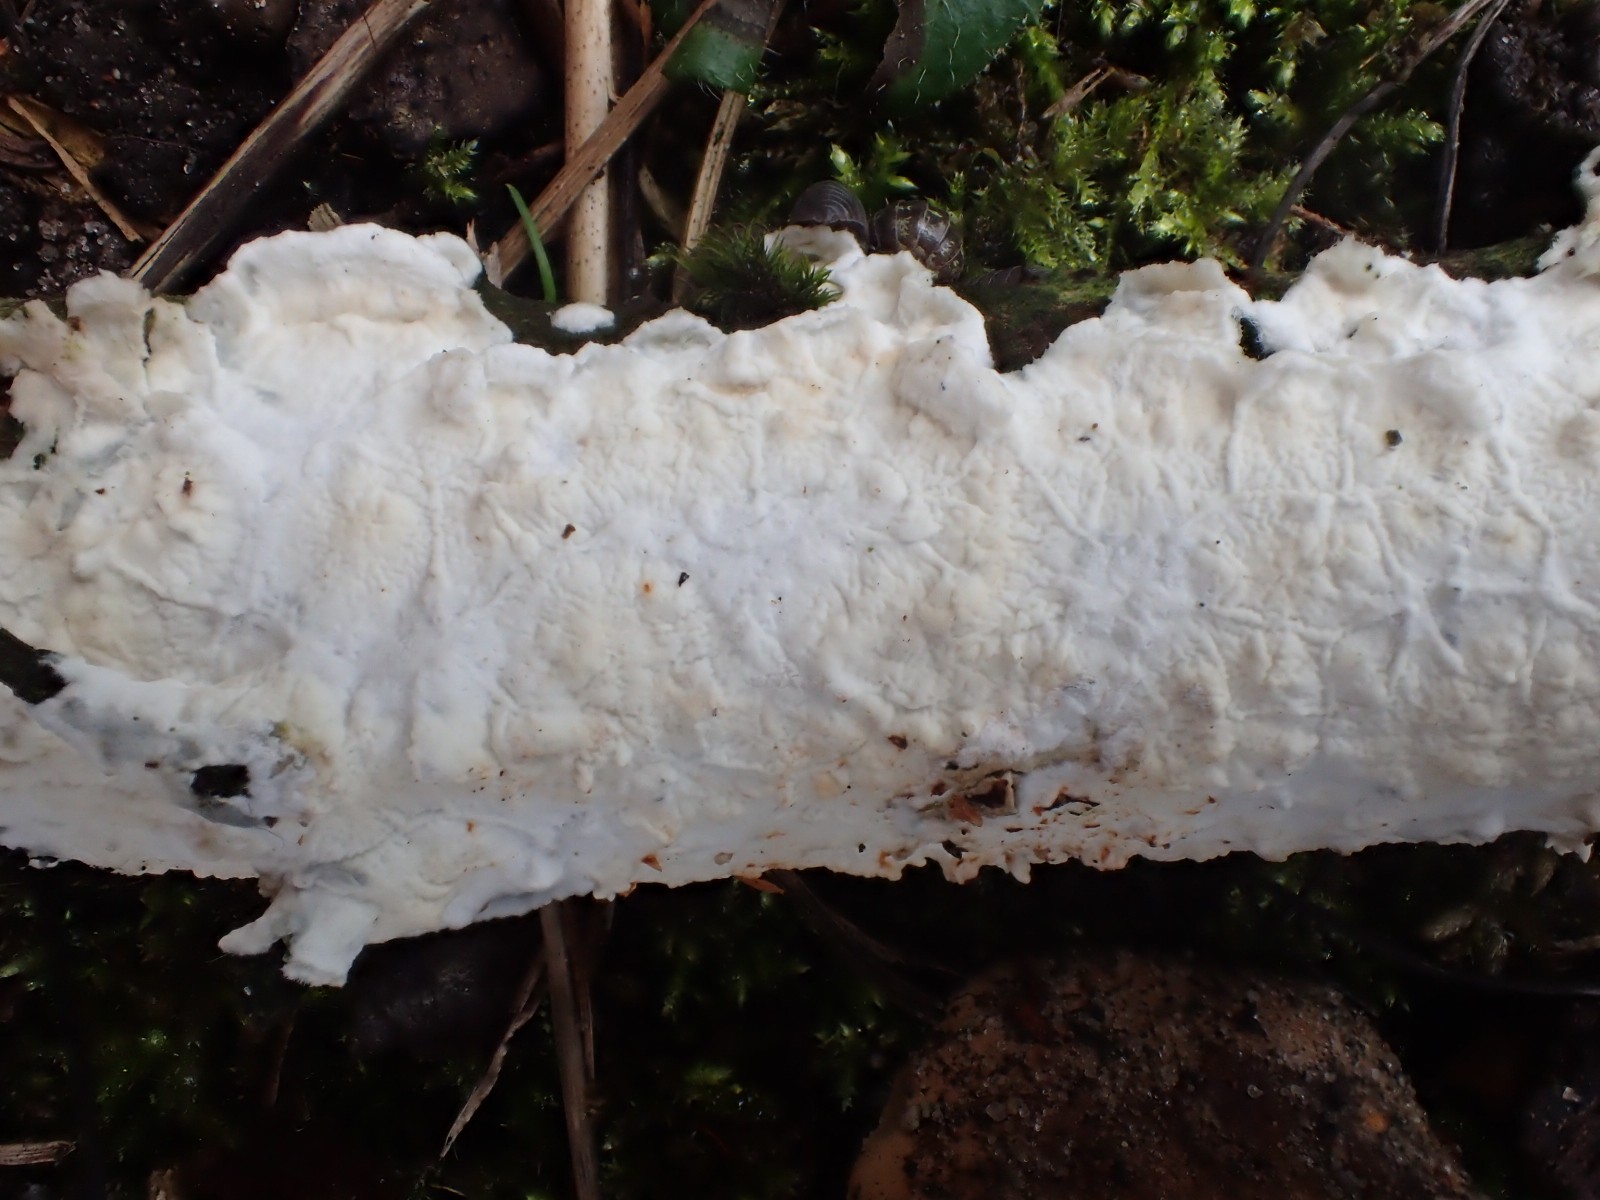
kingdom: Fungi
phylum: Basidiomycota
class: Agaricomycetes
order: Polyporales
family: Irpicaceae
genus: Byssomerulius
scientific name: Byssomerulius corium
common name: læder-åresvamp
